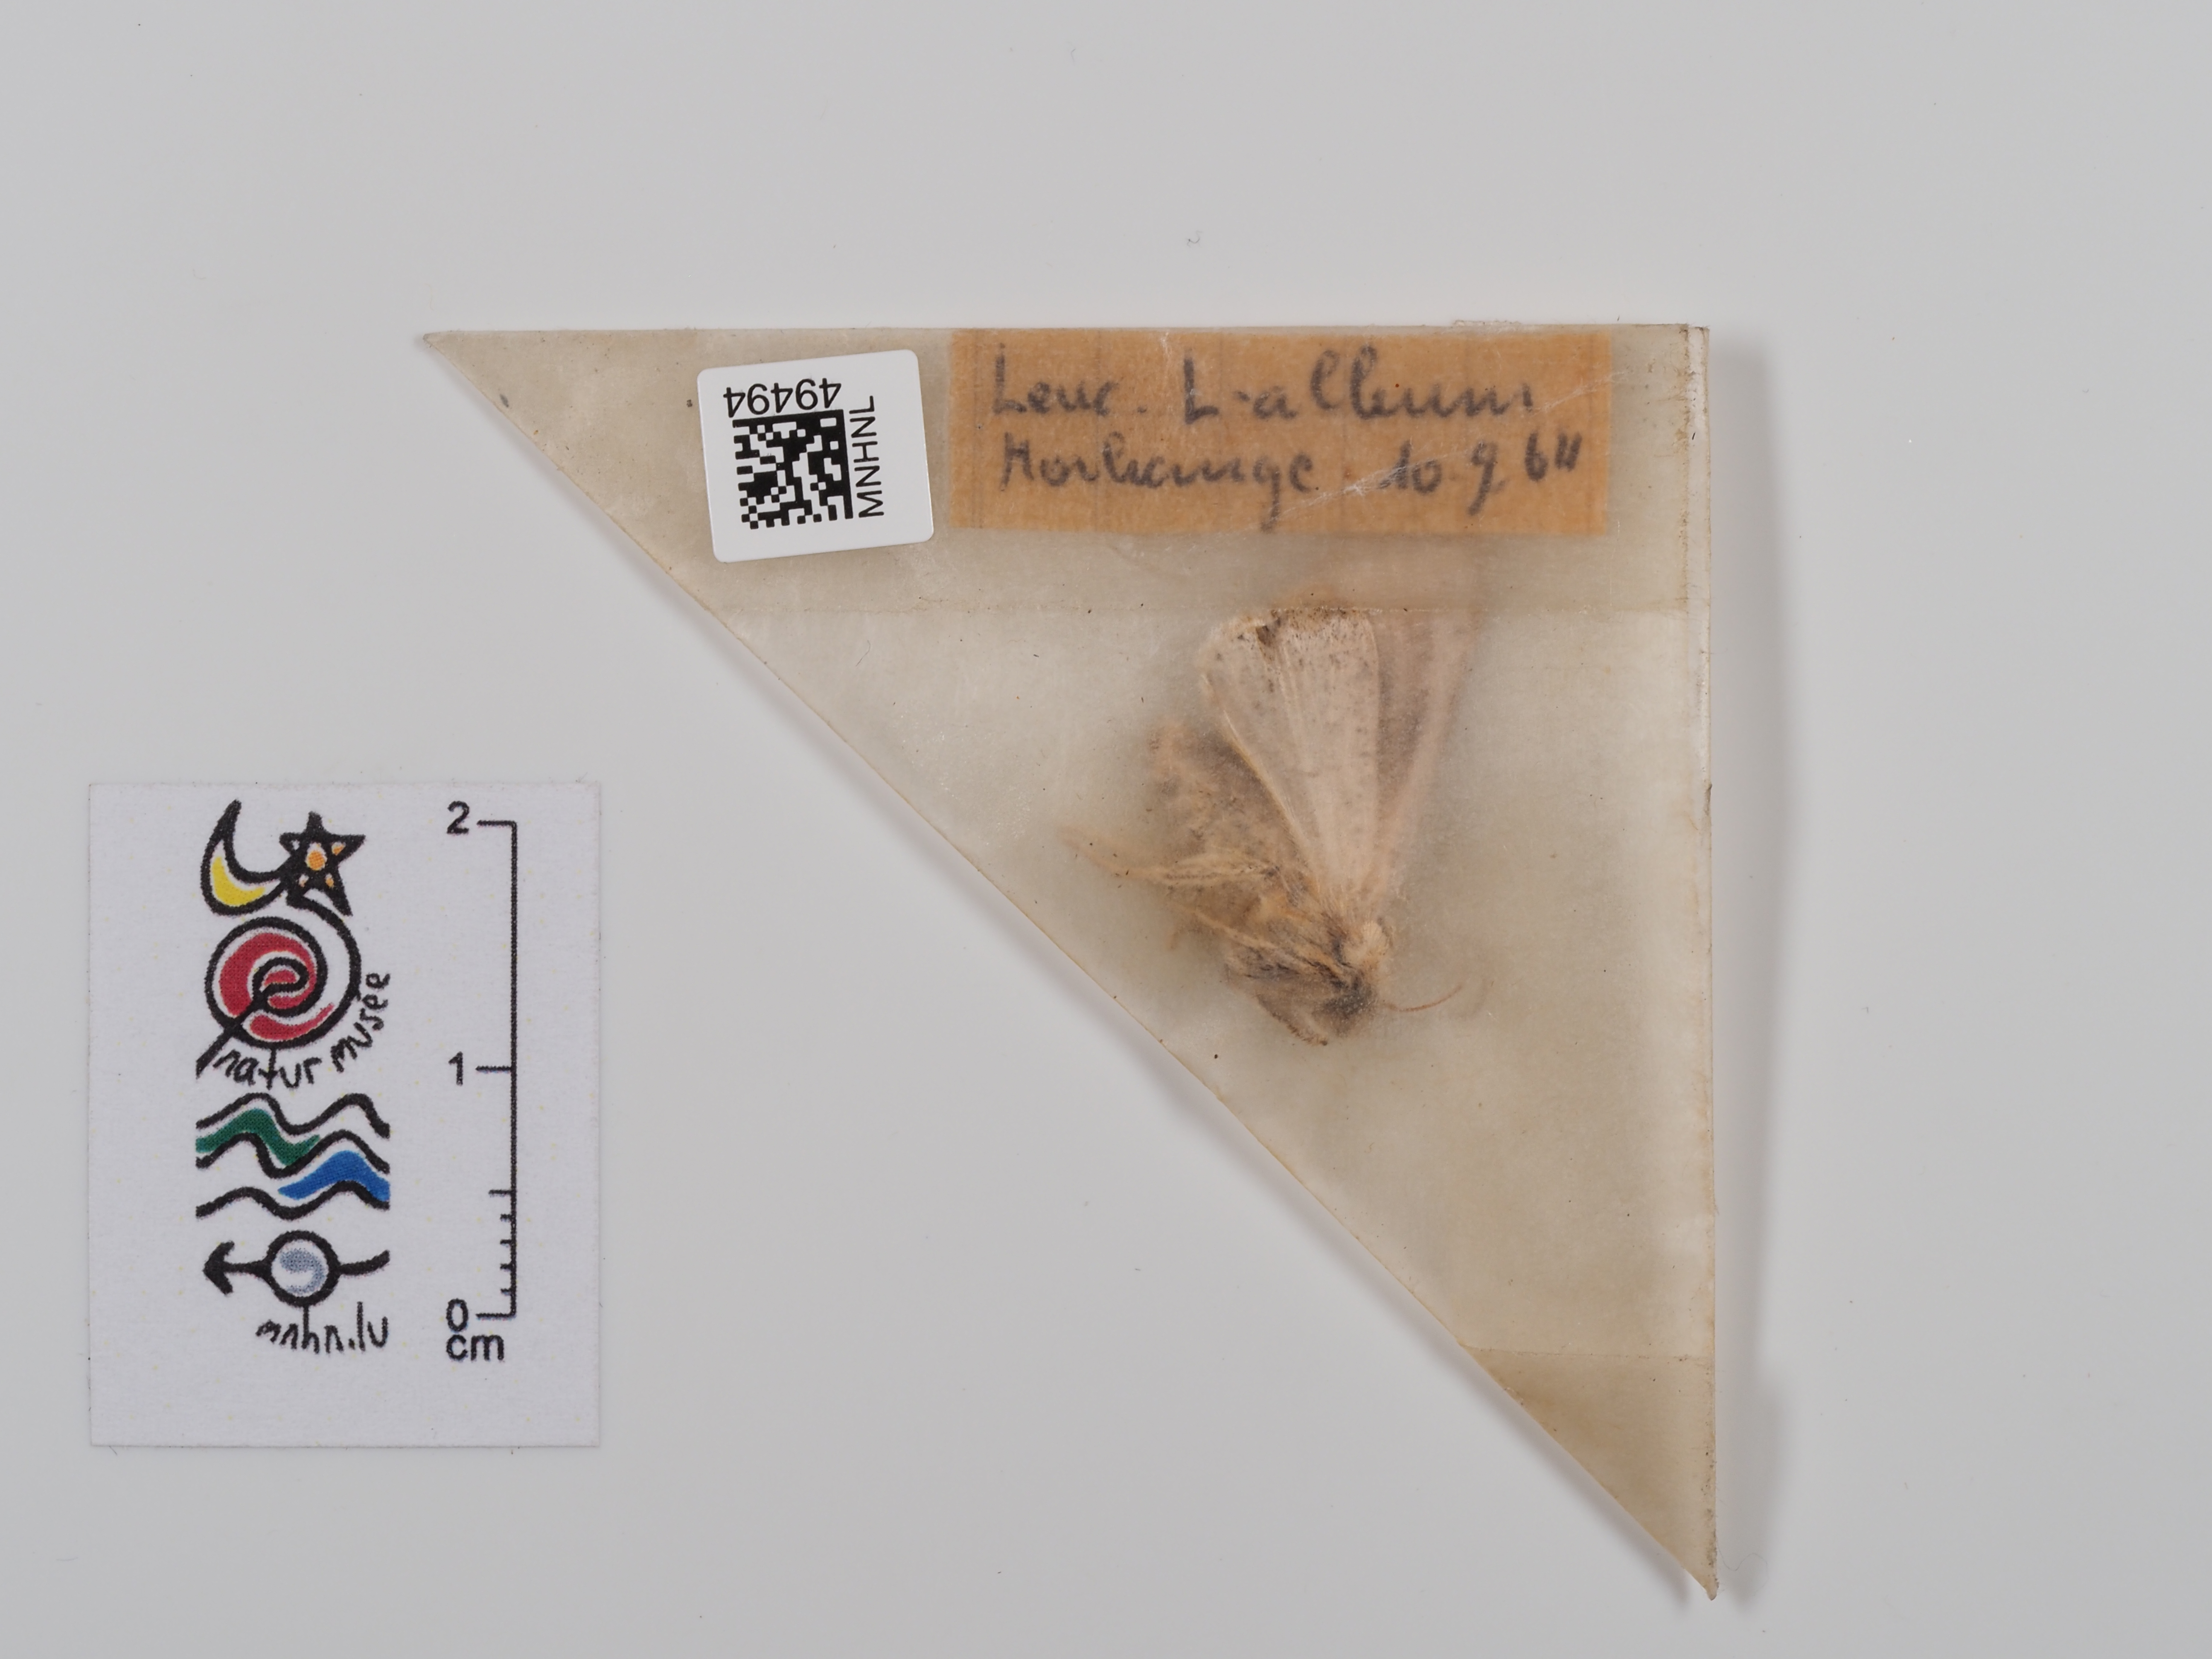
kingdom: Animalia
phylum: Arthropoda
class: Insecta
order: Lepidoptera
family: Noctuidae
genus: Mythimna
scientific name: Mythimna l-album
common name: L-album wainscot
